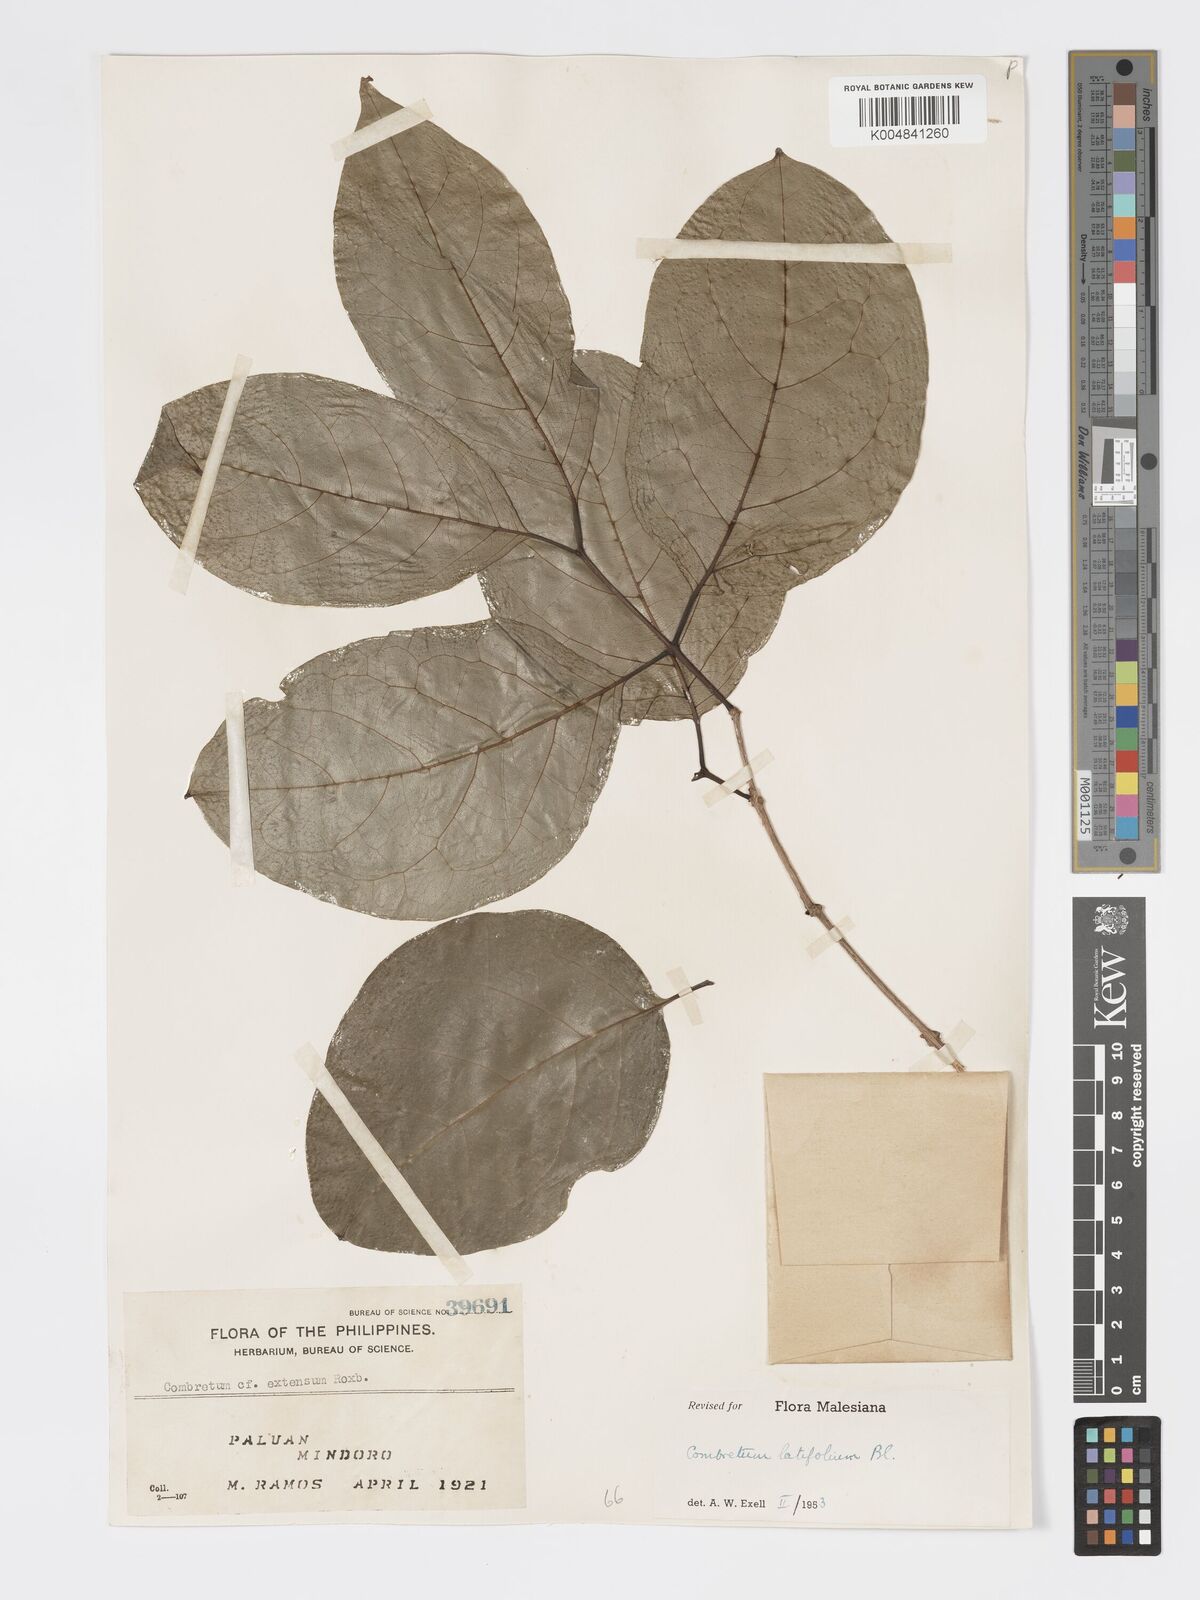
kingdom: Plantae
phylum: Tracheophyta
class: Magnoliopsida
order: Myrtales
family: Combretaceae
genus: Combretum
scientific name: Combretum
